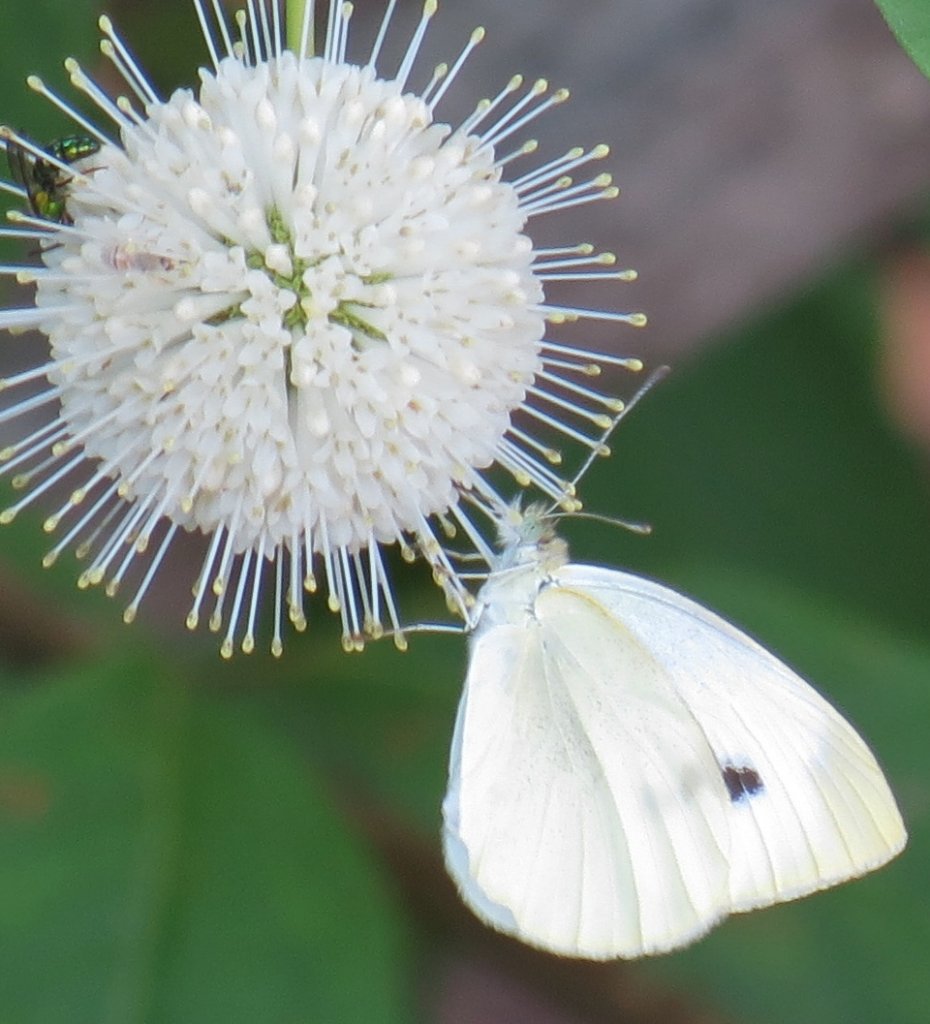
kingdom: Animalia
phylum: Arthropoda
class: Insecta
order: Lepidoptera
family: Pieridae
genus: Pieris
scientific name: Pieris rapae
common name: Cabbage White
